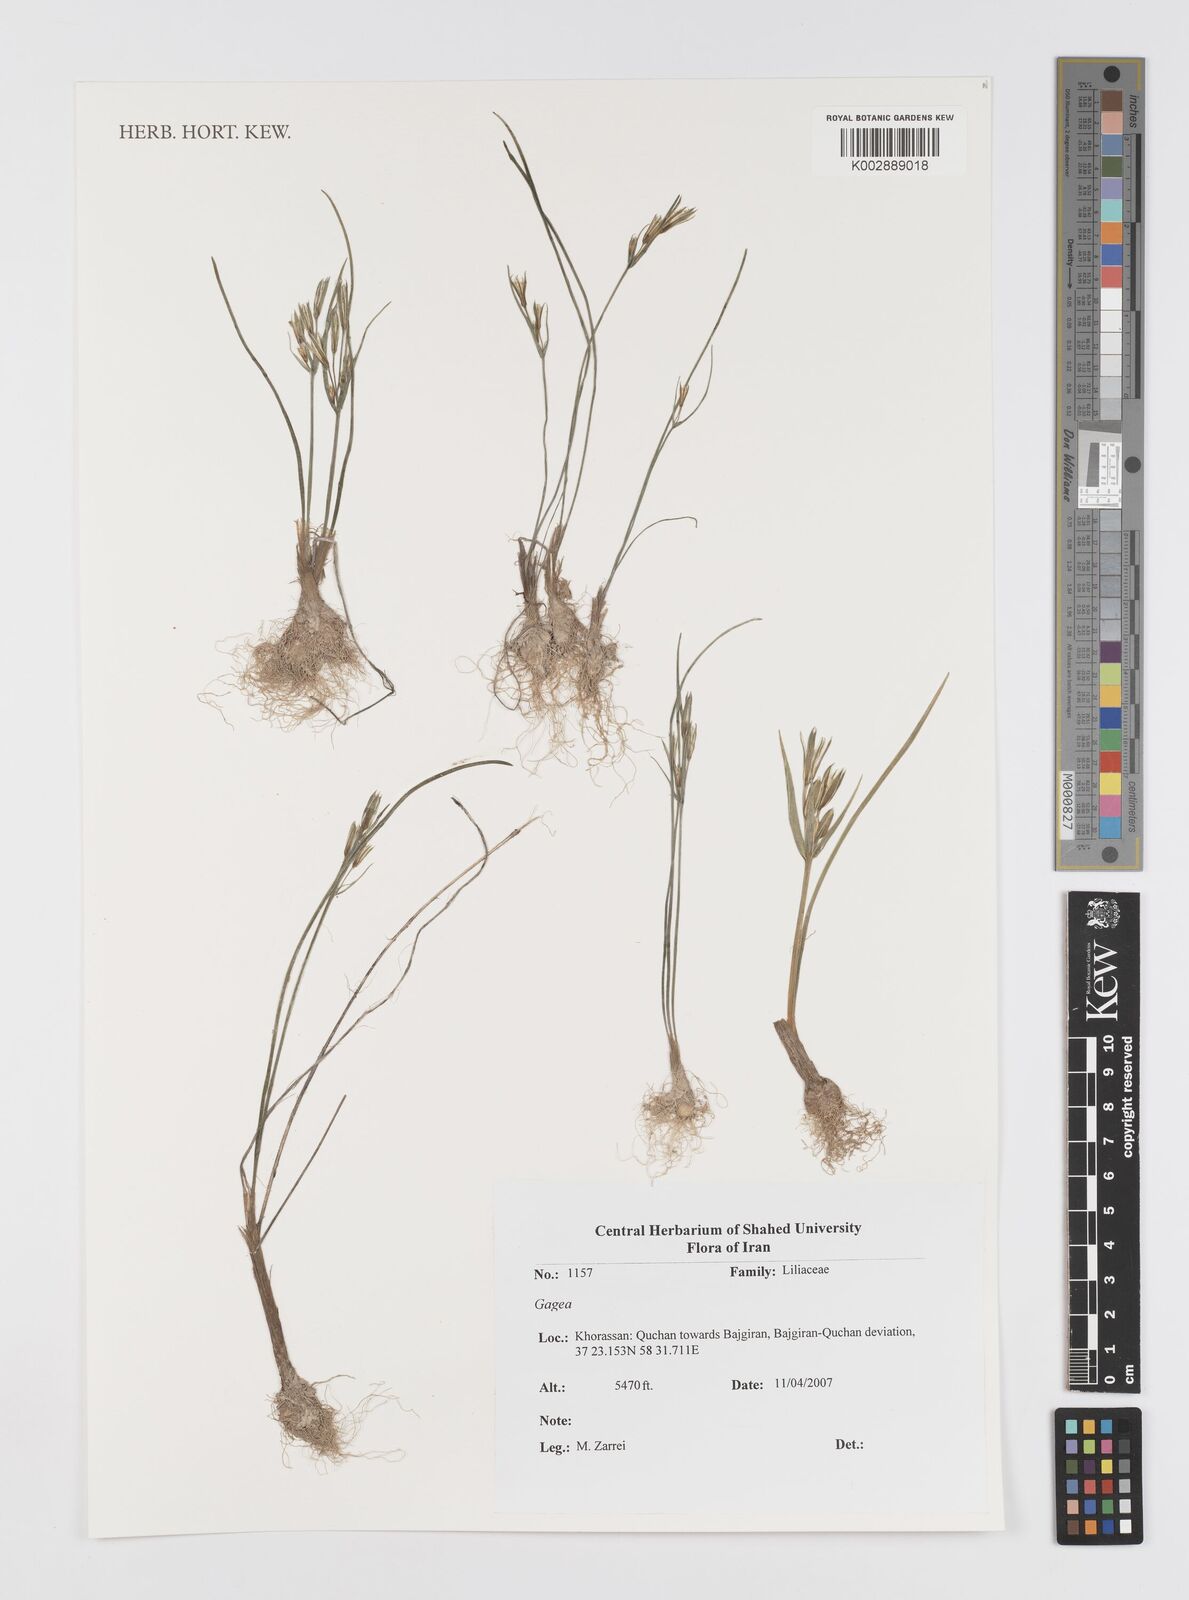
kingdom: Plantae
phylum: Tracheophyta
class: Liliopsida
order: Liliales
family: Liliaceae
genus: Gagea
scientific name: Gagea
